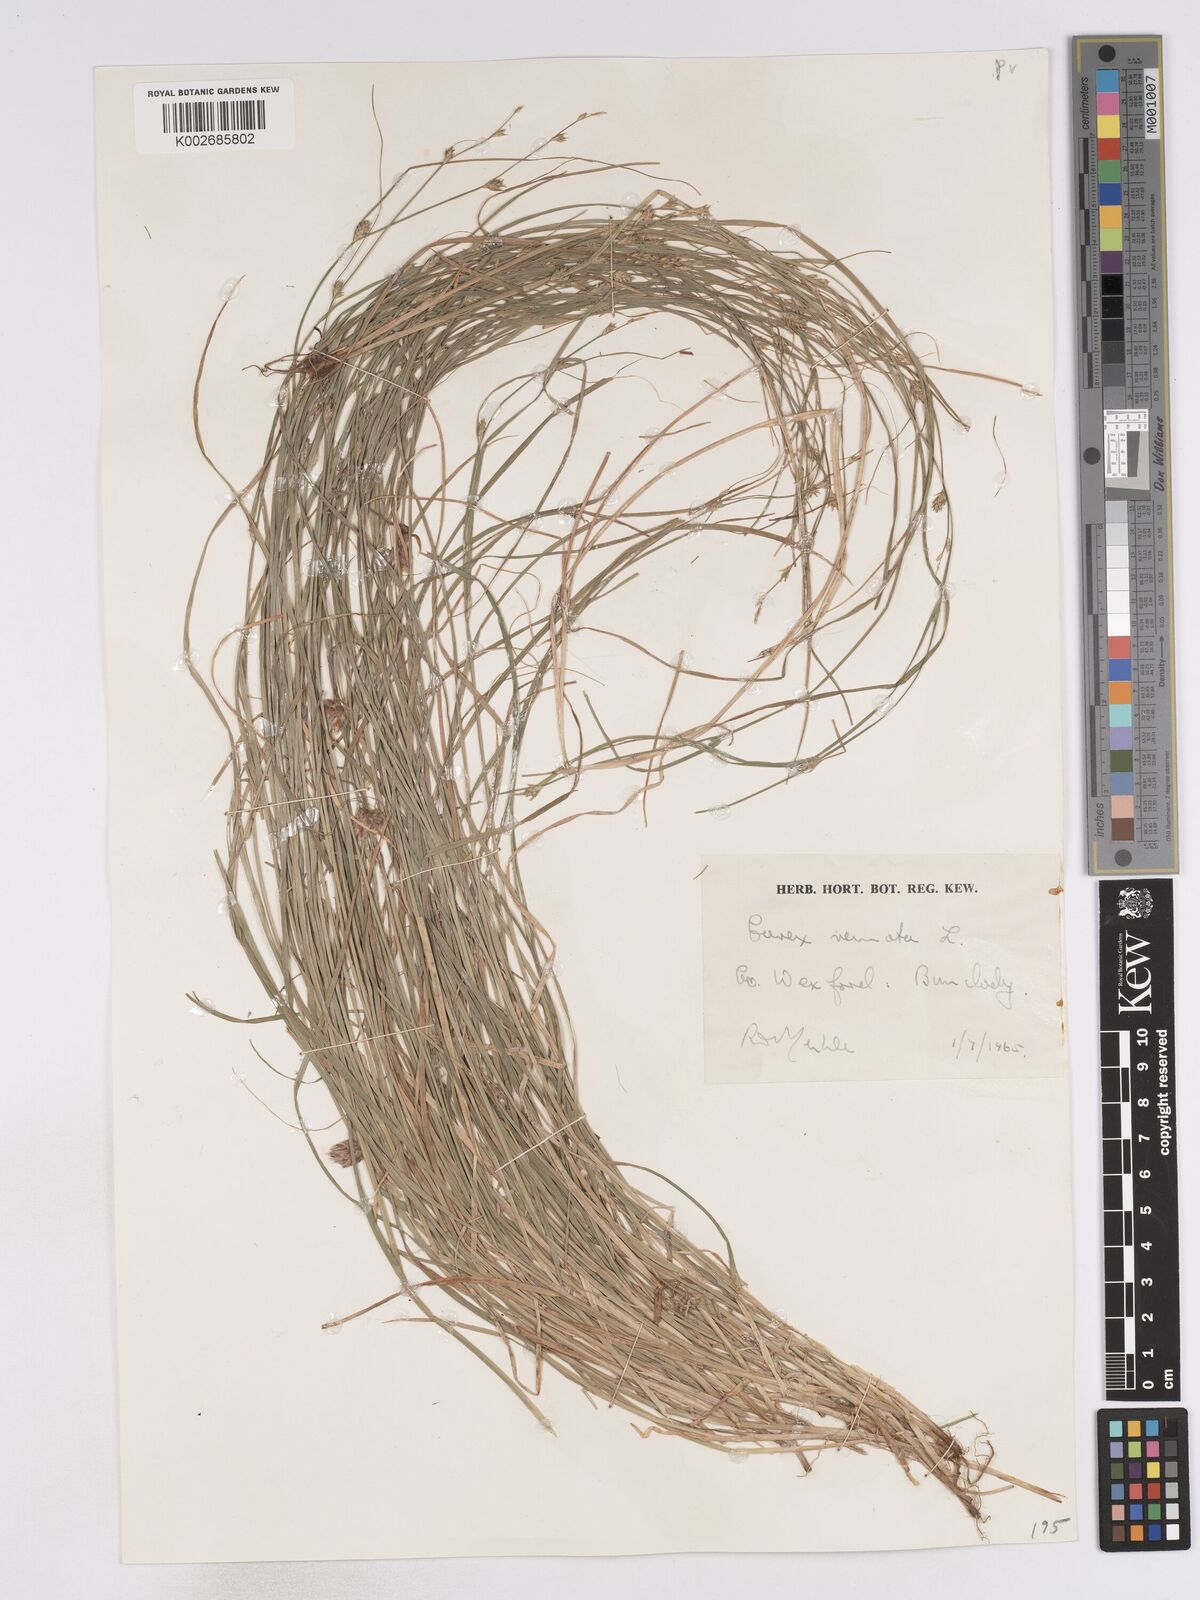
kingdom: Plantae
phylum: Tracheophyta
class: Liliopsida
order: Poales
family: Cyperaceae
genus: Carex
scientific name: Carex remota
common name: Remote sedge
